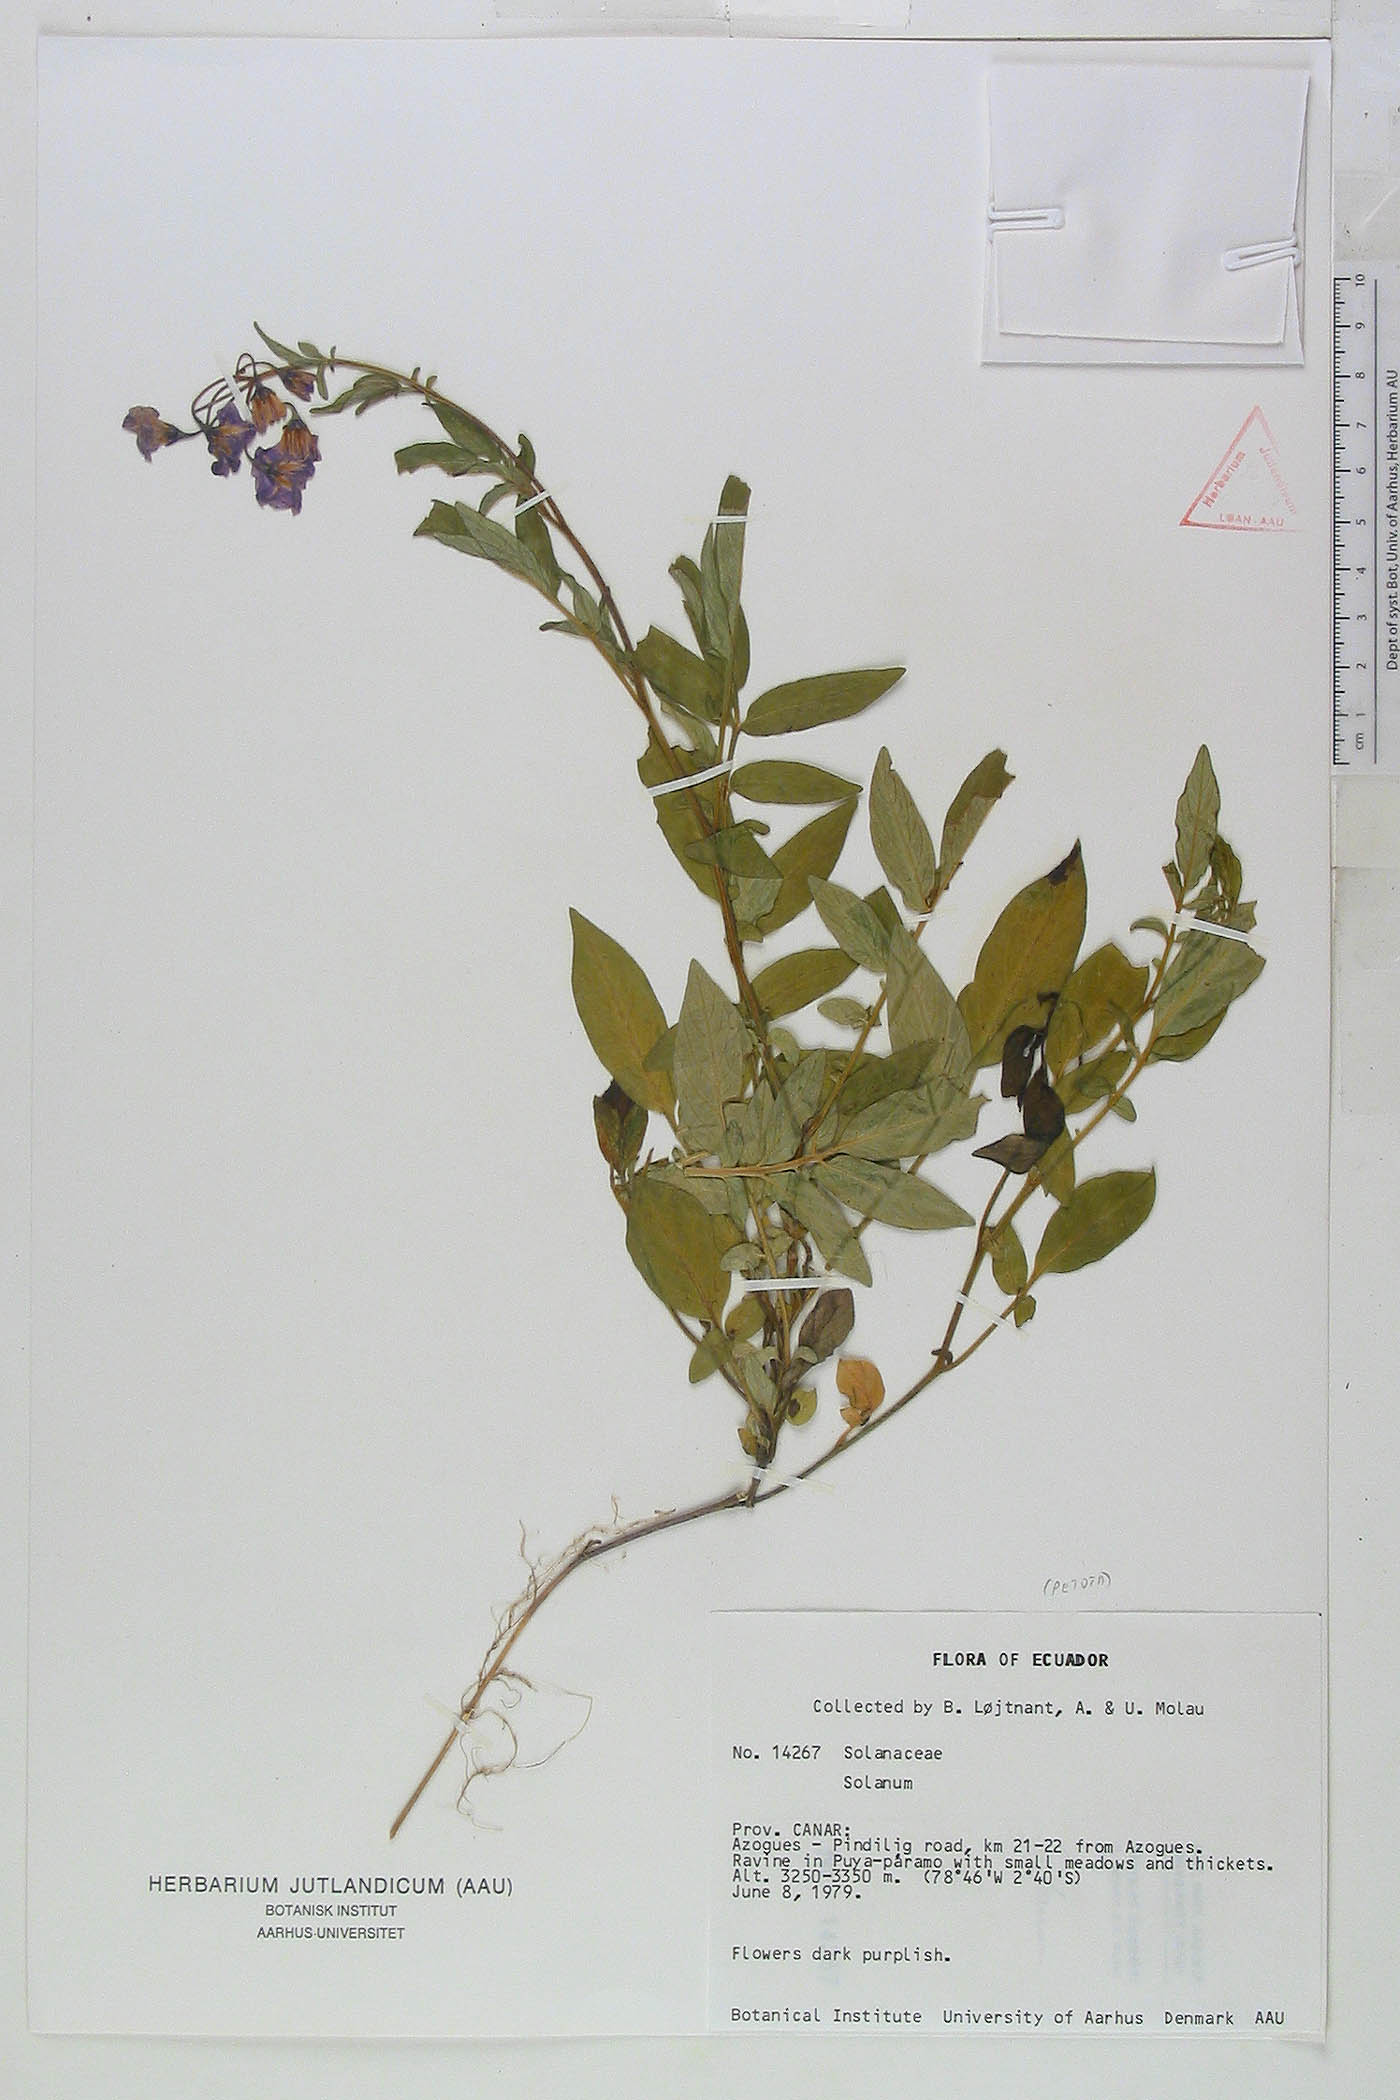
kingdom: Plantae
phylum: Tracheophyta
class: Magnoliopsida
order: Solanales
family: Solanaceae
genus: Solanum
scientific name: Solanum andreanum
